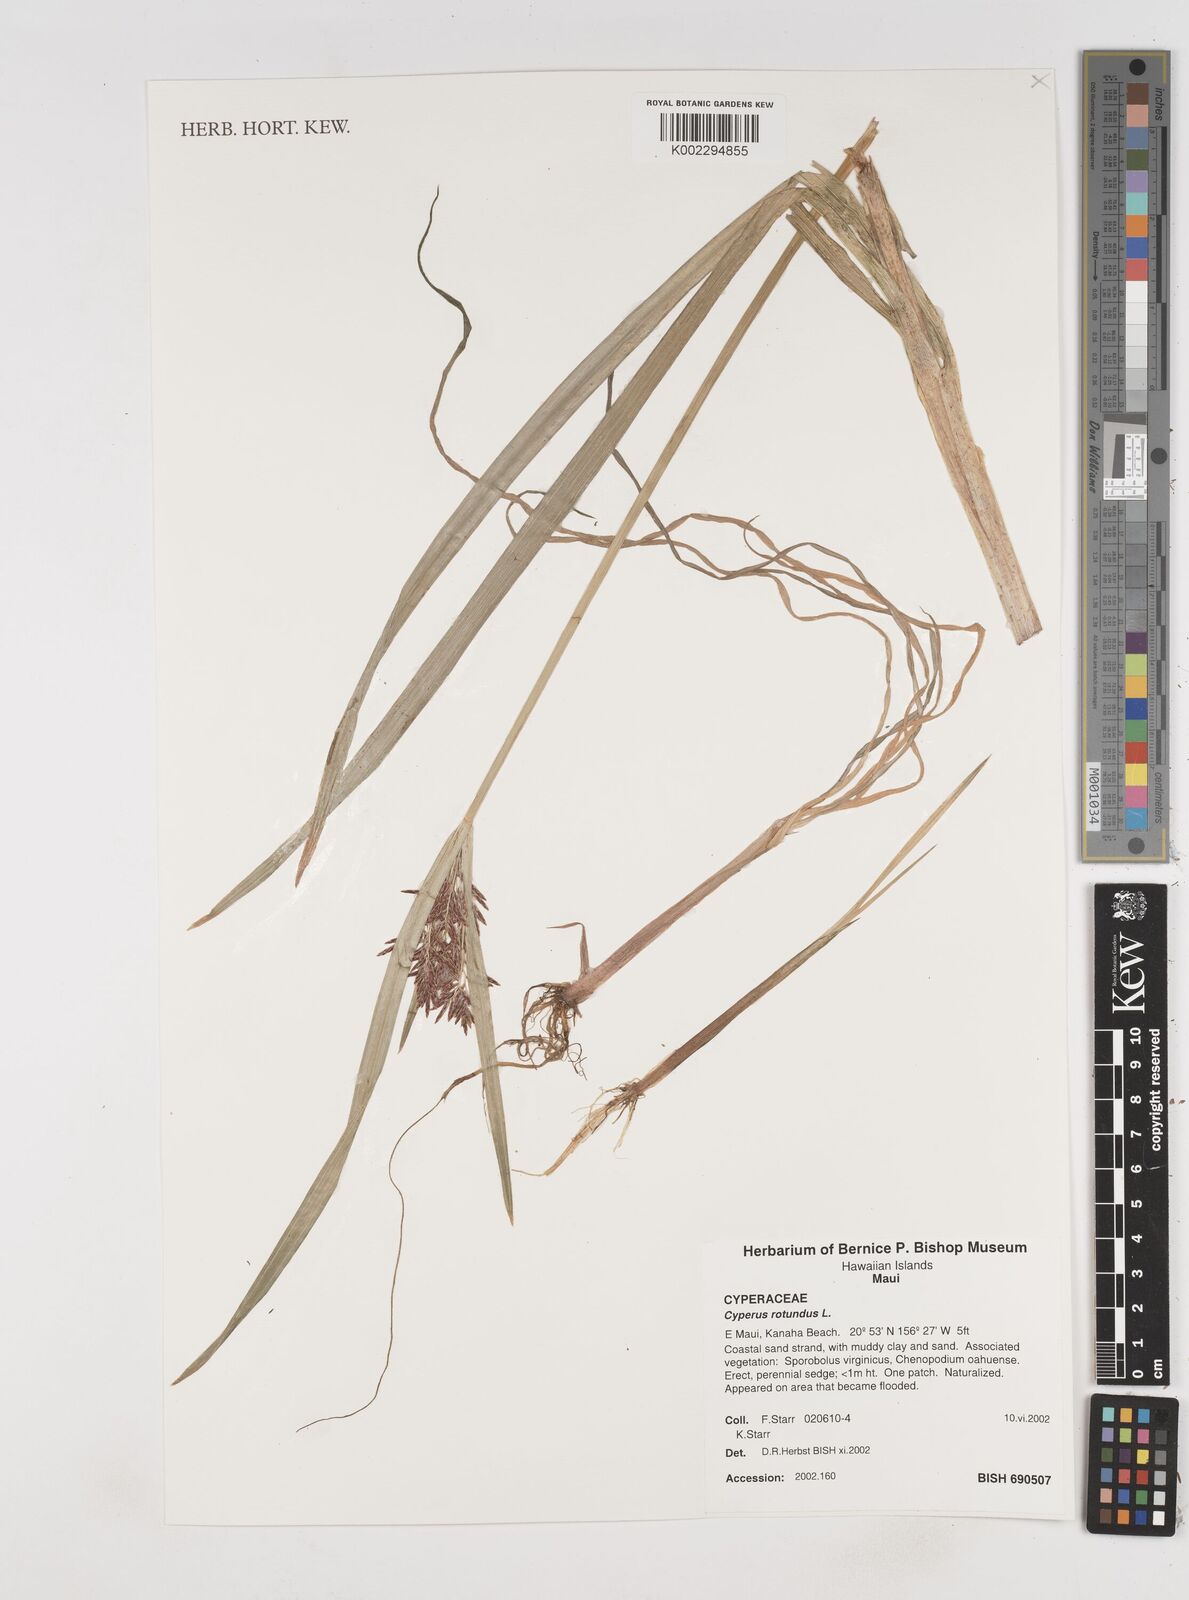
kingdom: Plantae
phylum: Tracheophyta
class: Liliopsida
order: Poales
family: Cyperaceae
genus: Cyperus
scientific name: Cyperus rotundus
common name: Nutgrass
